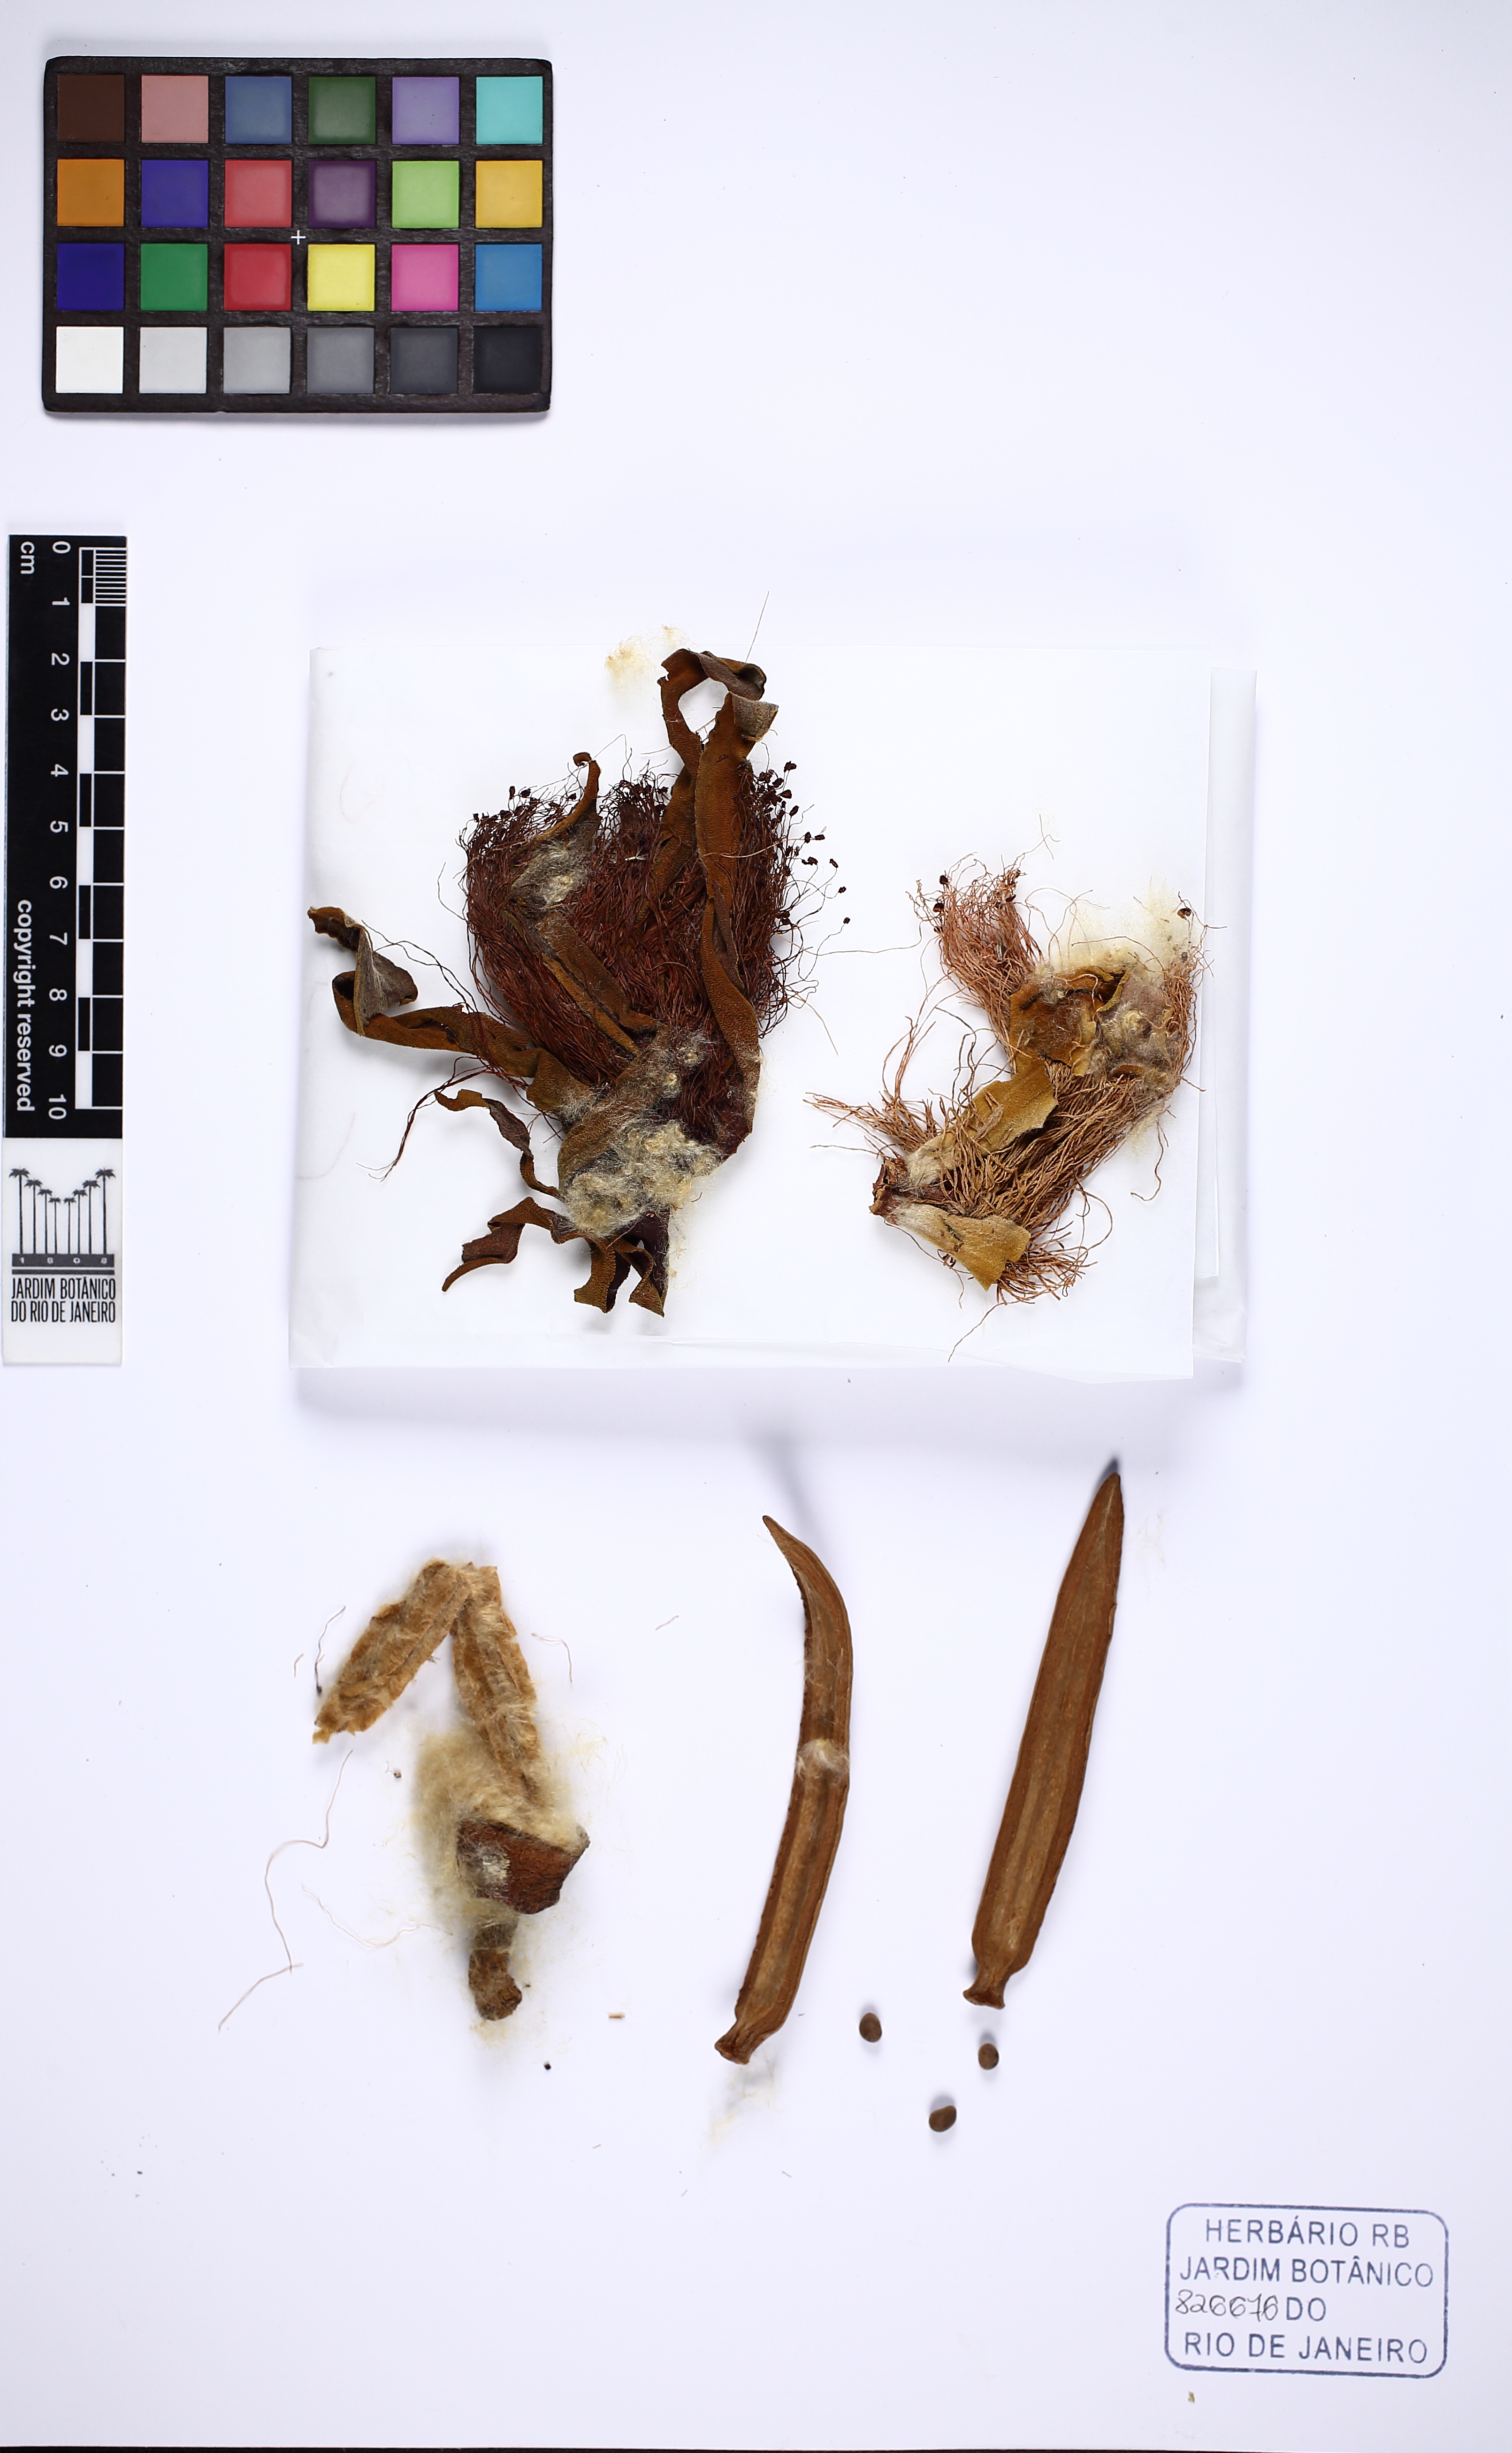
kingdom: Plantae
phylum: Tracheophyta
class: Magnoliopsida
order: Malvales
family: Malvaceae
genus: Pseudobombax
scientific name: Pseudobombax petropolitanum
